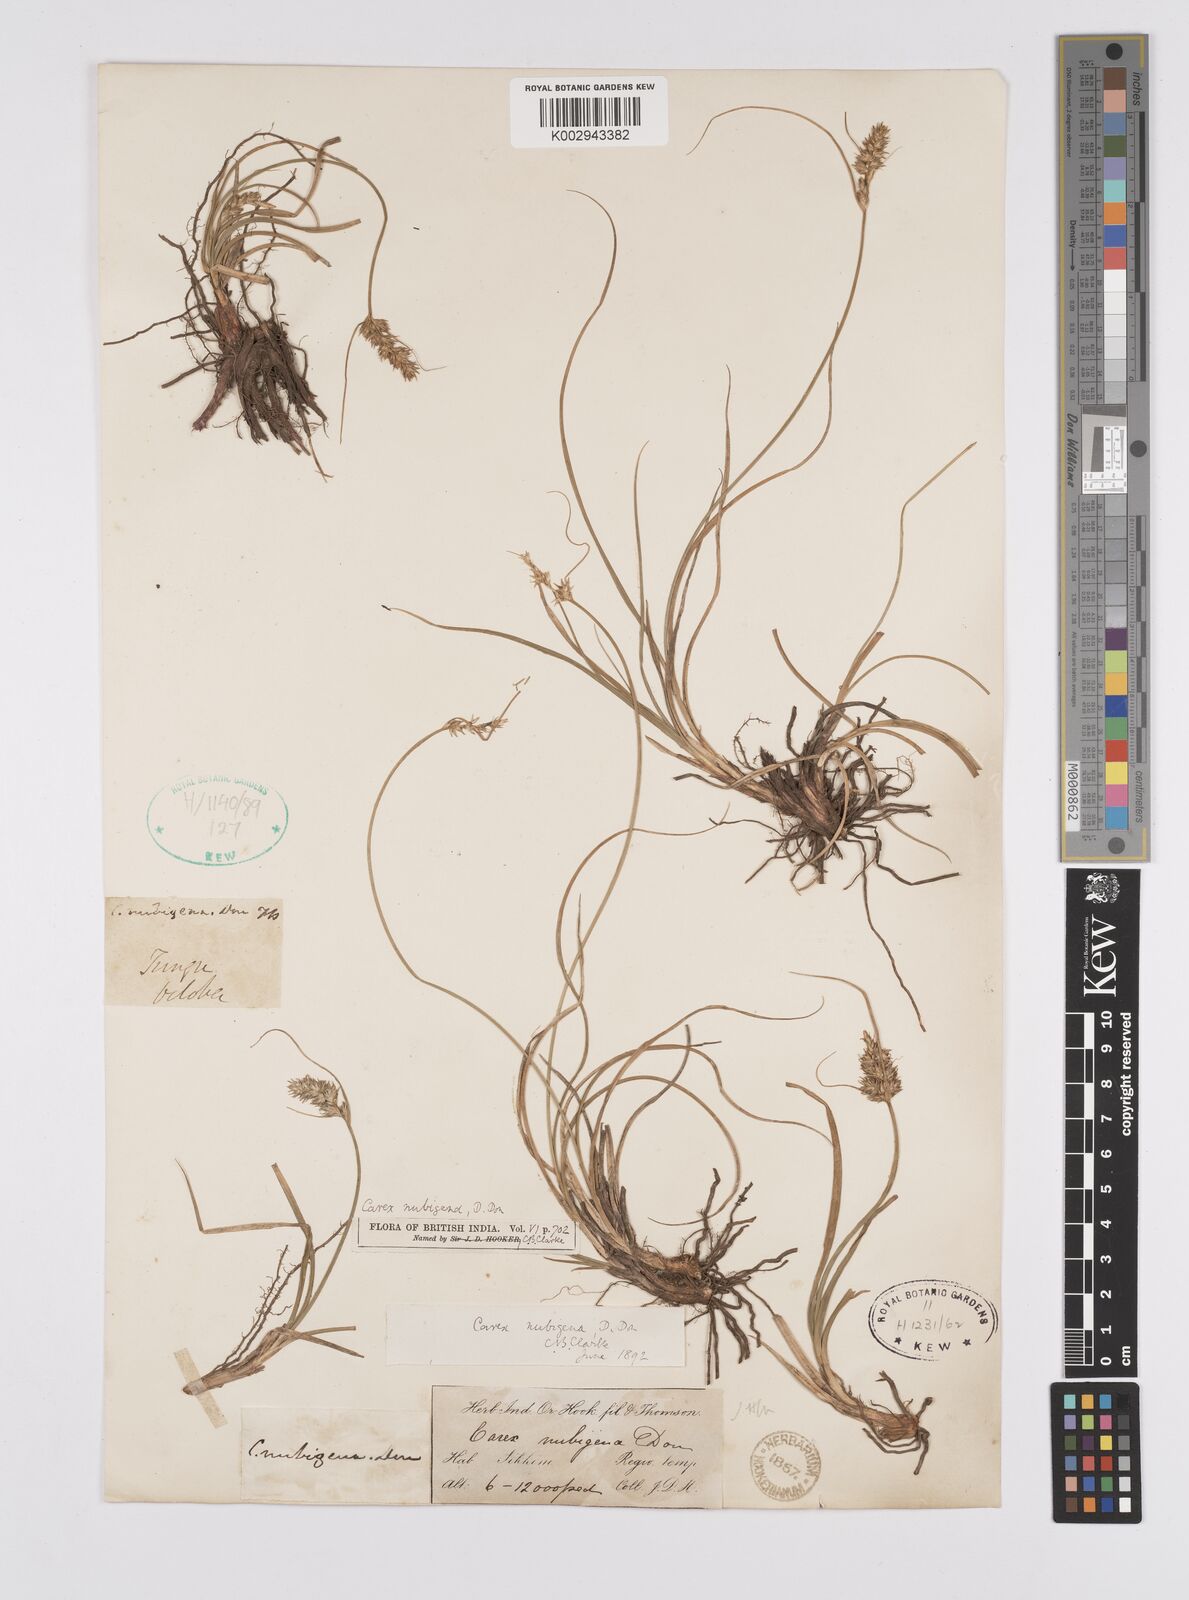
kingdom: Plantae
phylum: Tracheophyta
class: Liliopsida
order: Poales
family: Cyperaceae
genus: Carex
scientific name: Carex nubigena
